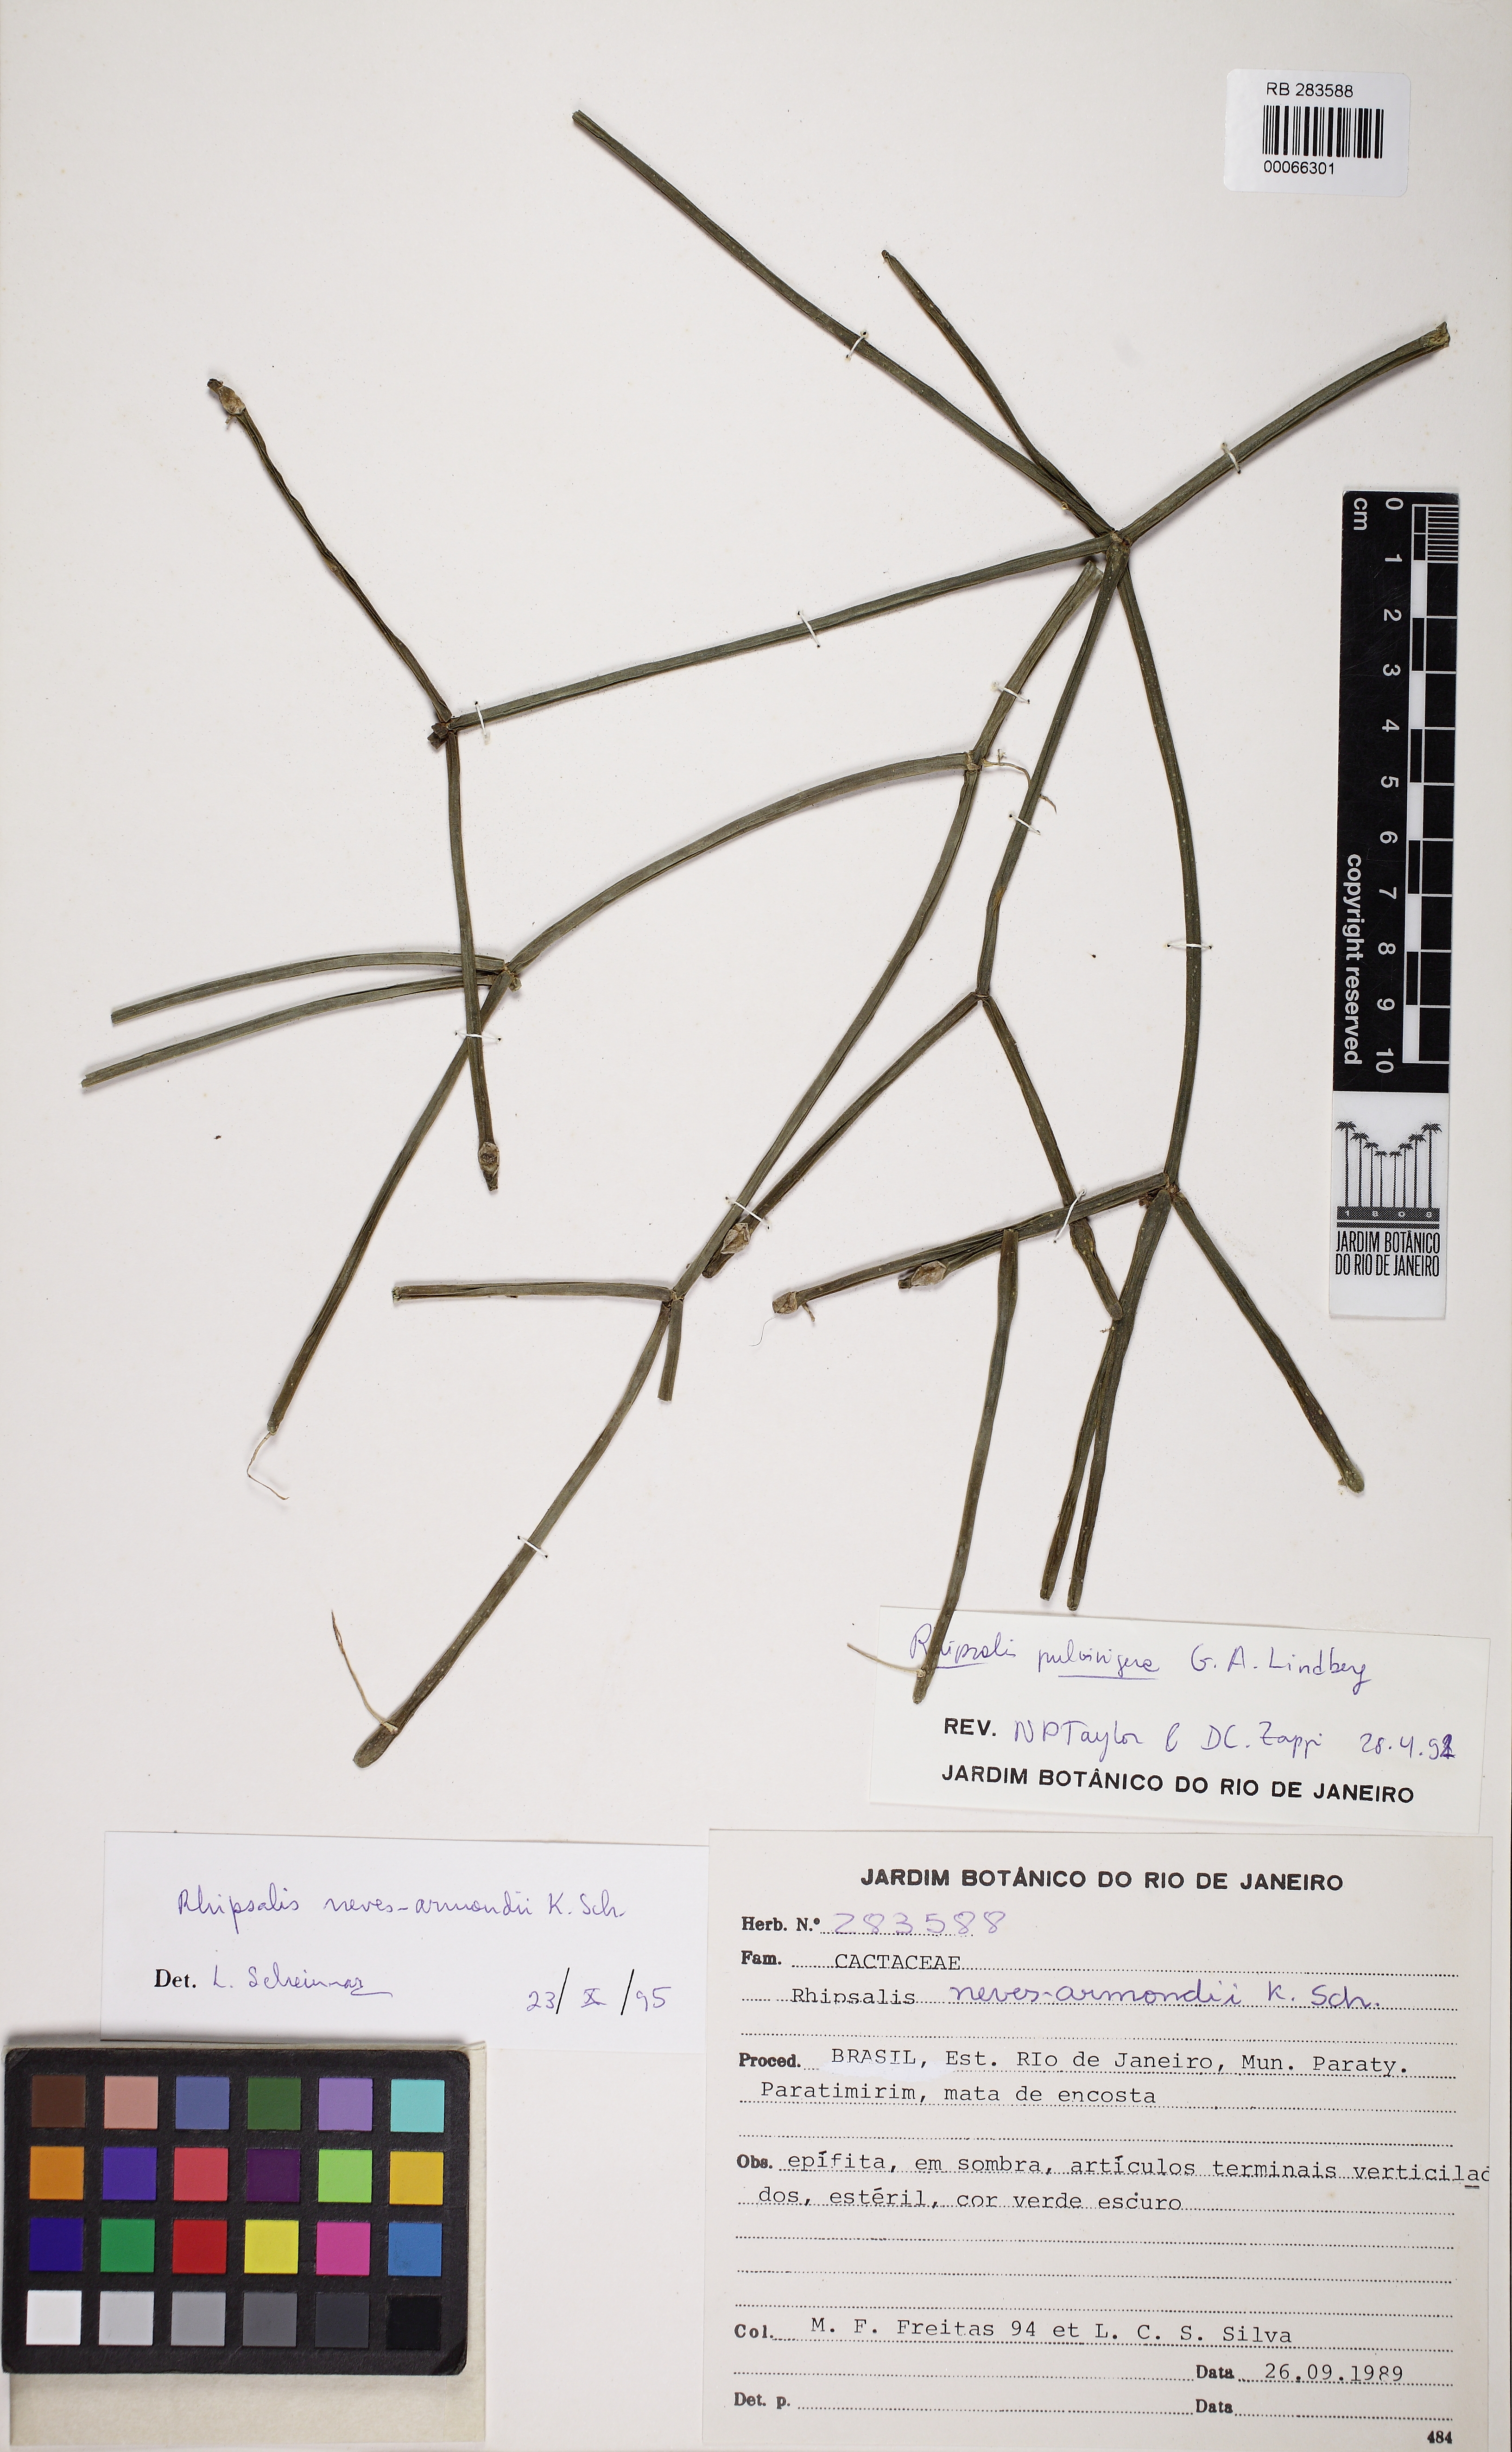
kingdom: Plantae
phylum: Tracheophyta
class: Magnoliopsida
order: Caryophyllales
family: Cactaceae
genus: Rhipsalis
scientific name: Rhipsalis neves-armondii
